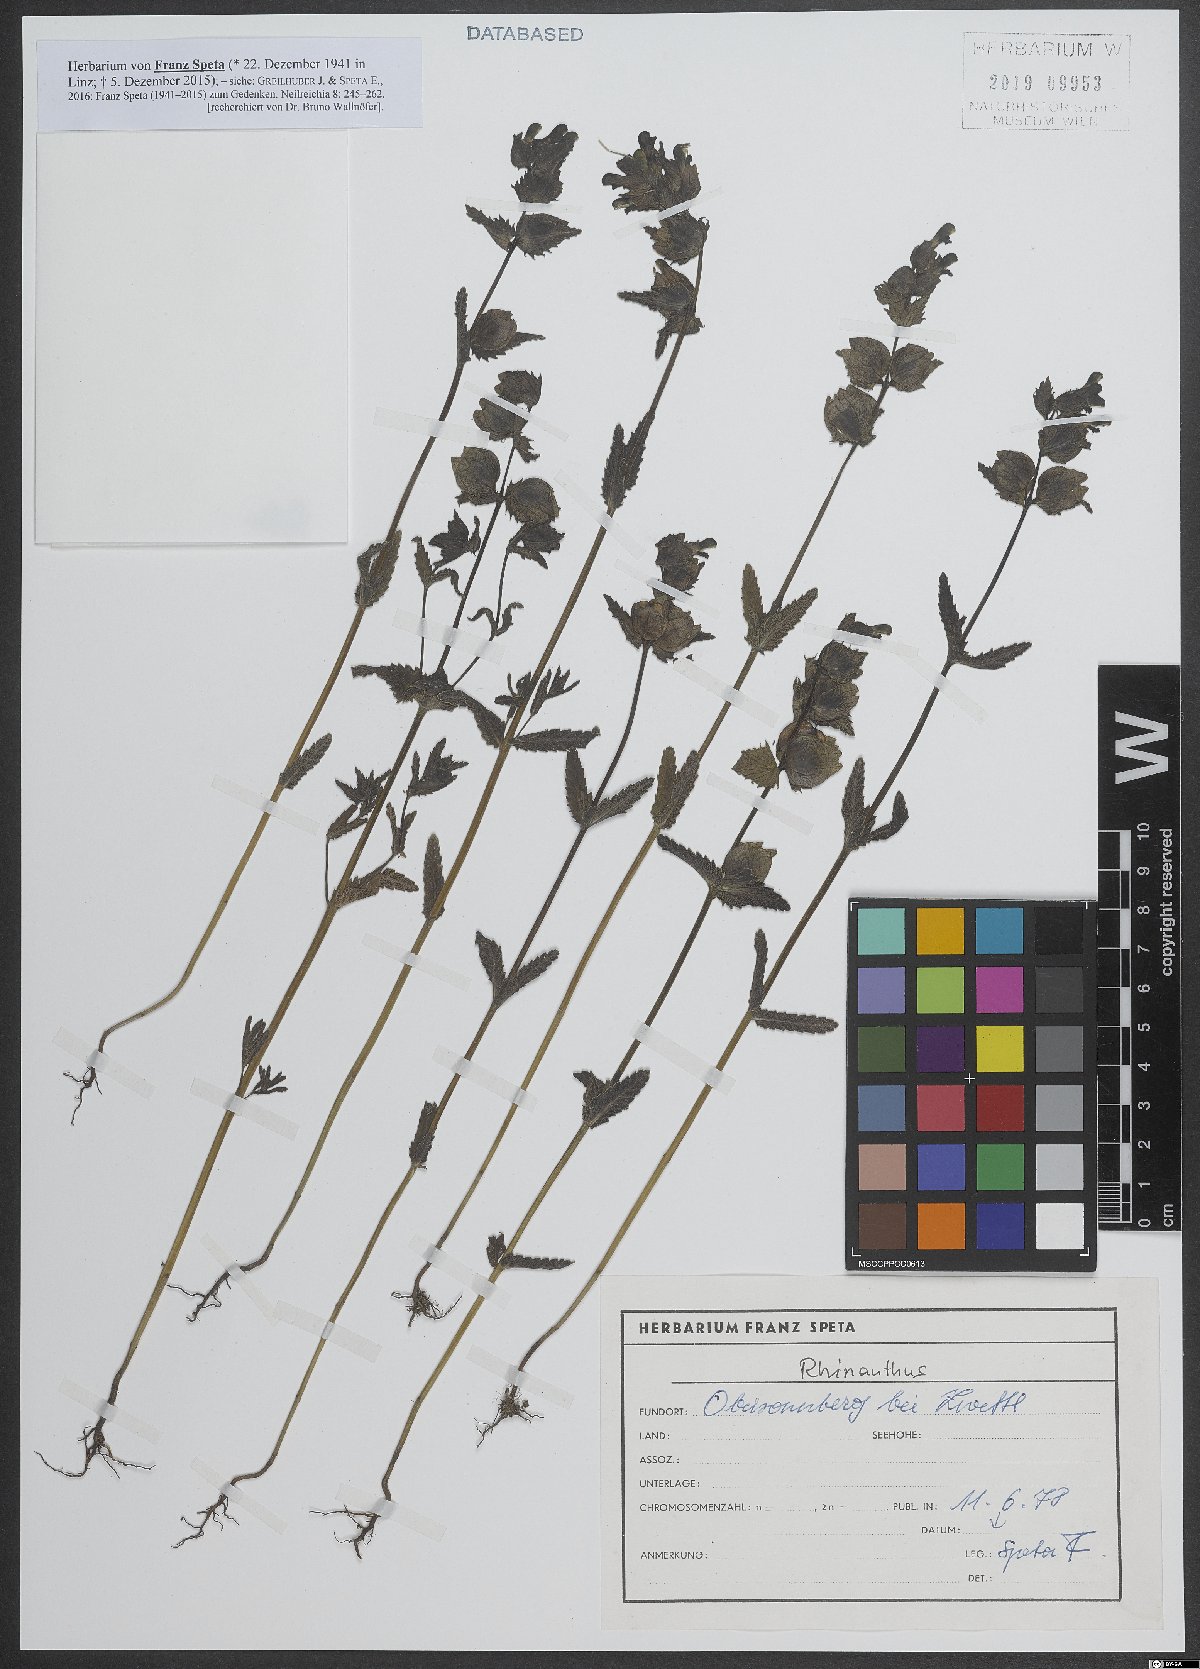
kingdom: Plantae
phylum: Tracheophyta
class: Magnoliopsida
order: Lamiales
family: Orobanchaceae
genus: Rhinanthus
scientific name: Rhinanthus
